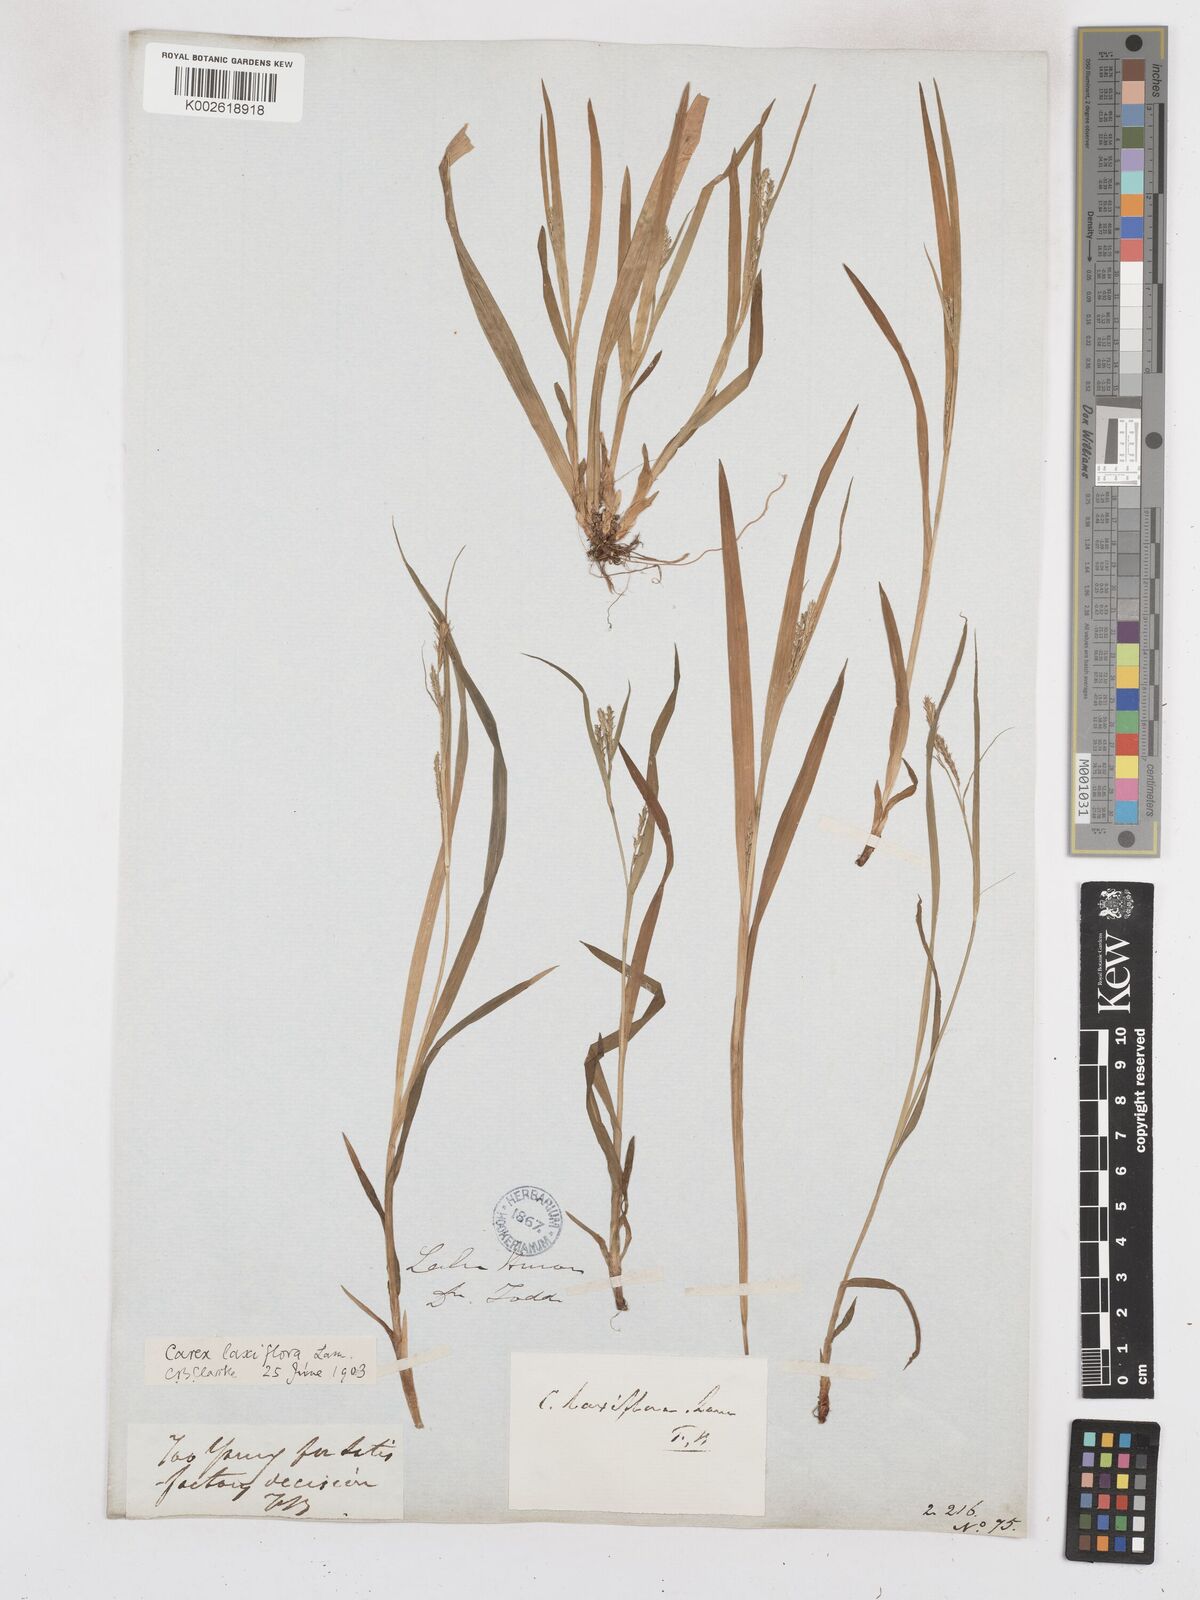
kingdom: Plantae
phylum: Tracheophyta
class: Liliopsida
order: Poales
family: Cyperaceae
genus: Carex
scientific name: Carex laxiflora
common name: Beech wood sedge
